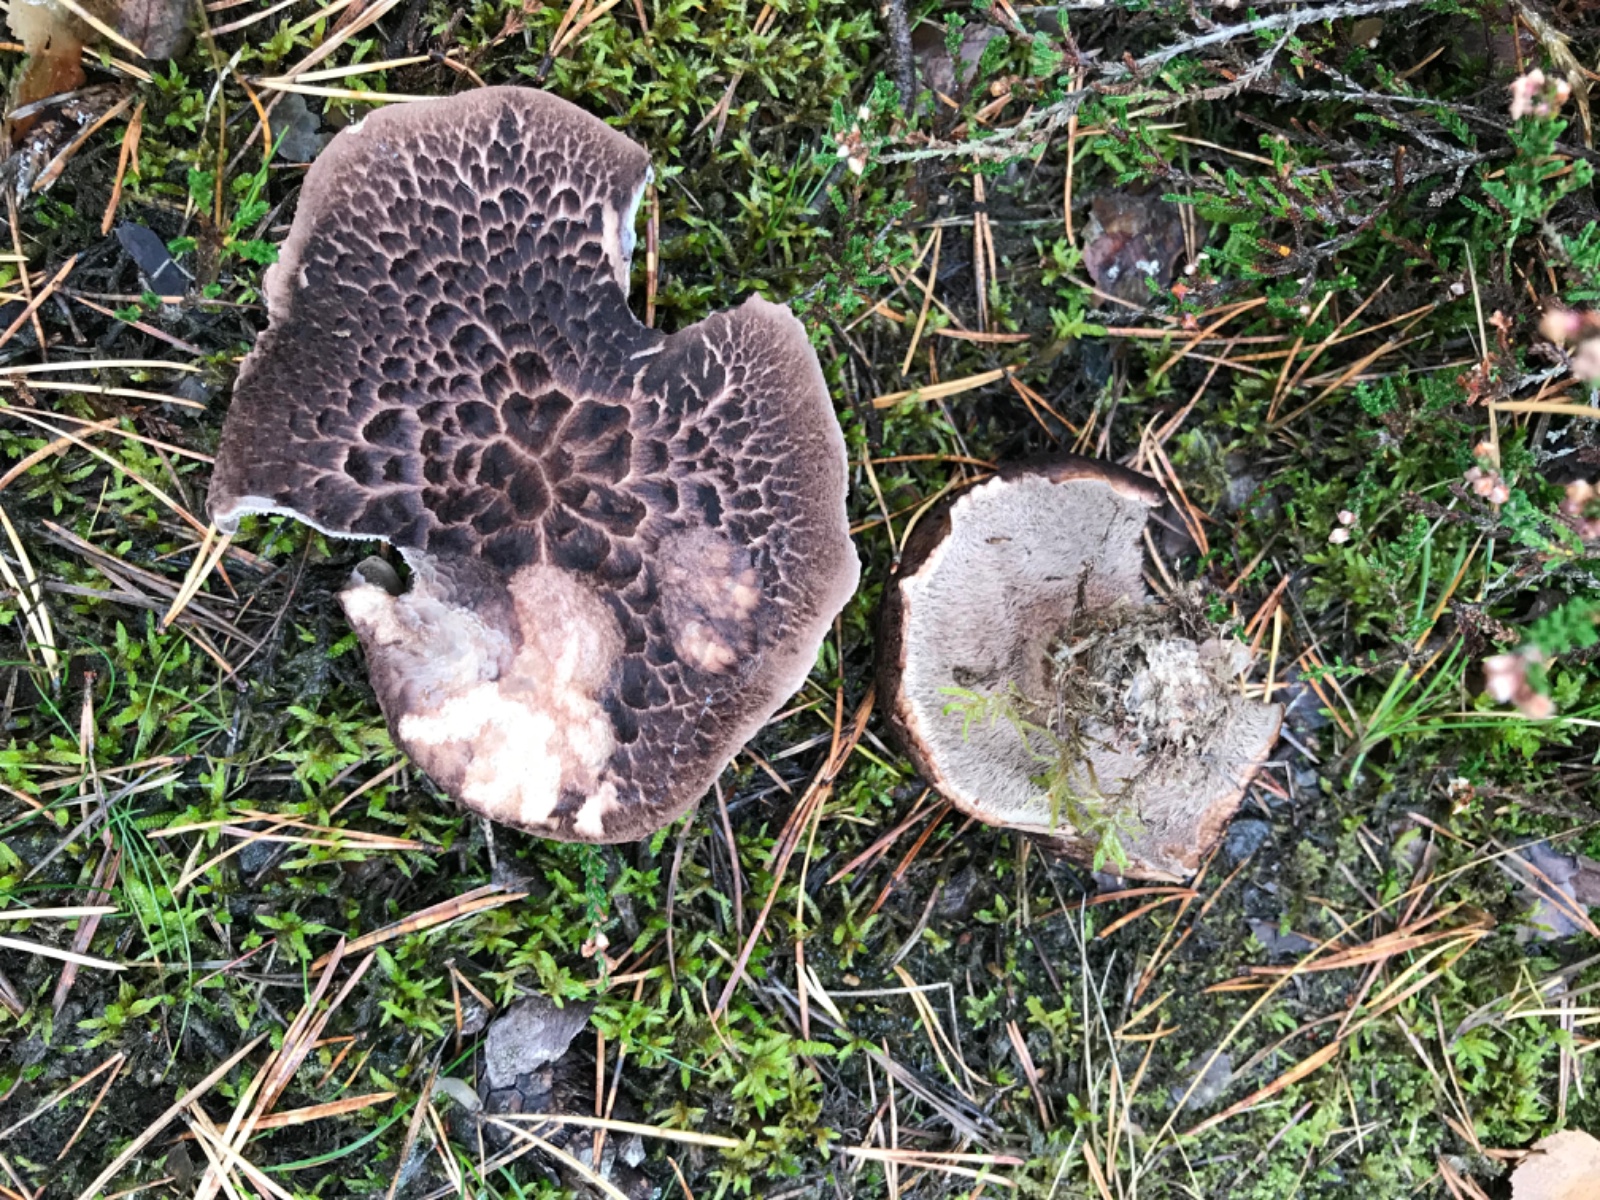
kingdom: Fungi
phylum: Basidiomycota
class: Agaricomycetes
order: Thelephorales
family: Bankeraceae
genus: Sarcodon
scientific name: Sarcodon squamosus
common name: småskællet kødpigsvamp
